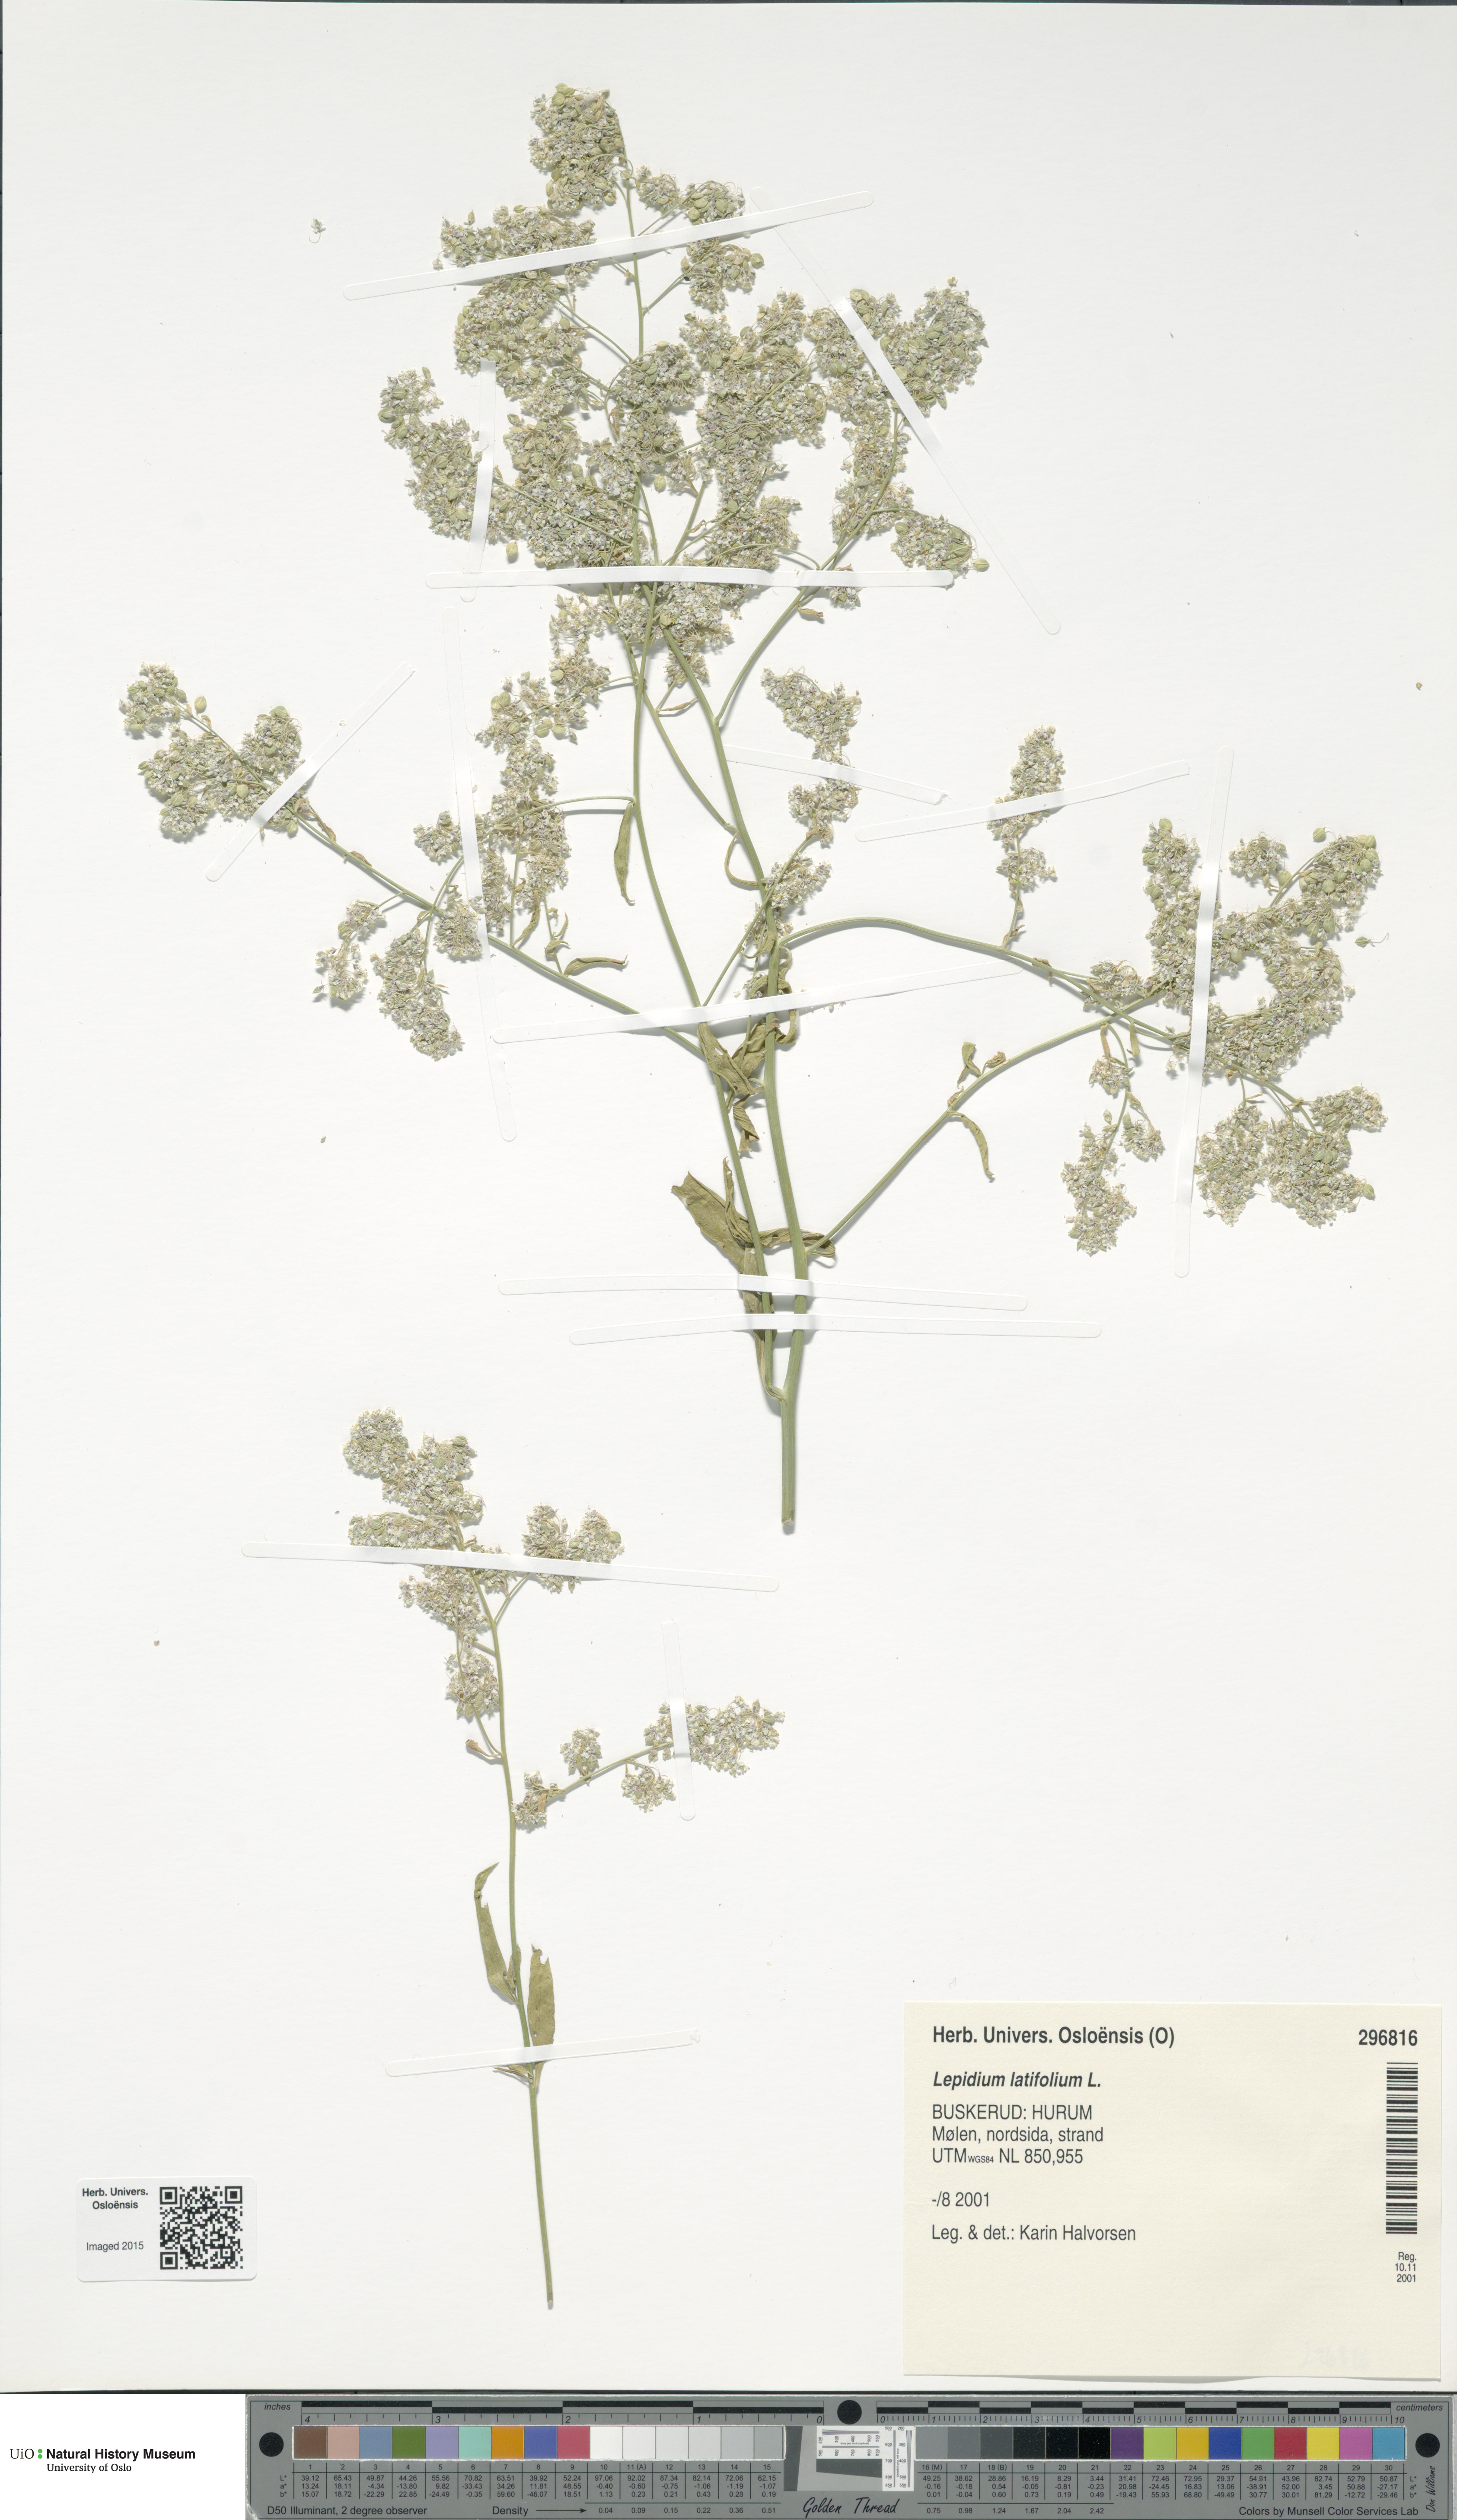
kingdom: Plantae
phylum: Tracheophyta
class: Magnoliopsida
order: Brassicales
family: Brassicaceae
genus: Lepidium
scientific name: Lepidium latifolium
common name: Dittander
